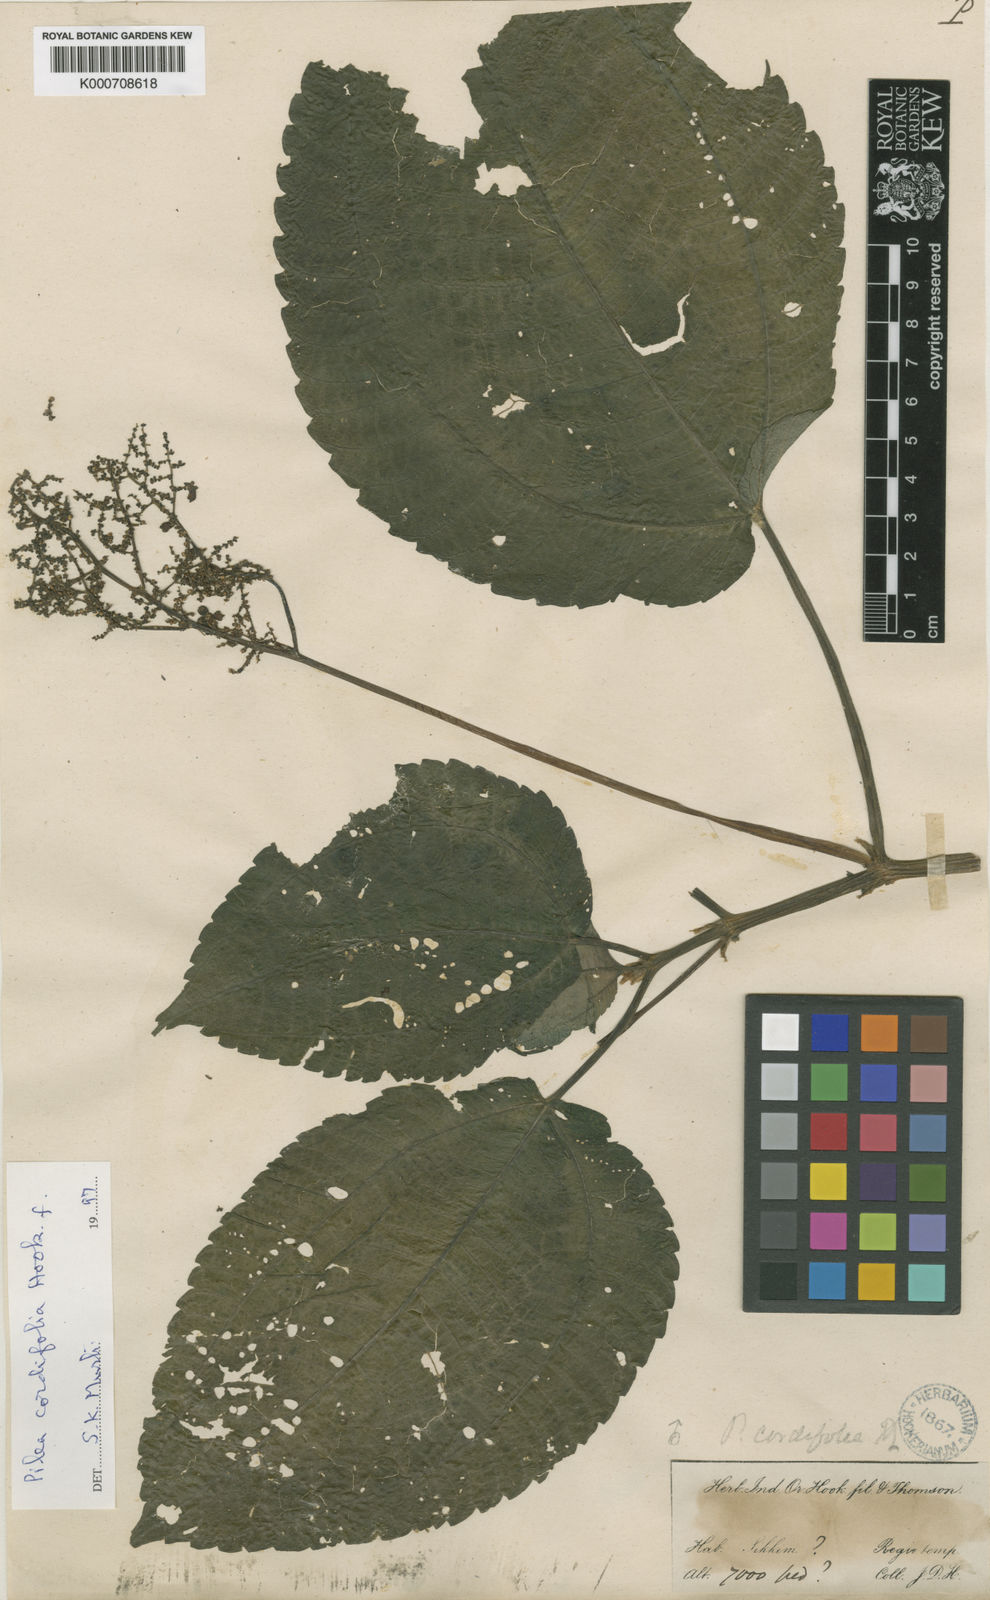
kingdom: Plantae
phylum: Tracheophyta
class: Magnoliopsida
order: Rosales
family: Urticaceae
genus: Pilea
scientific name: Pilea cordifolia
